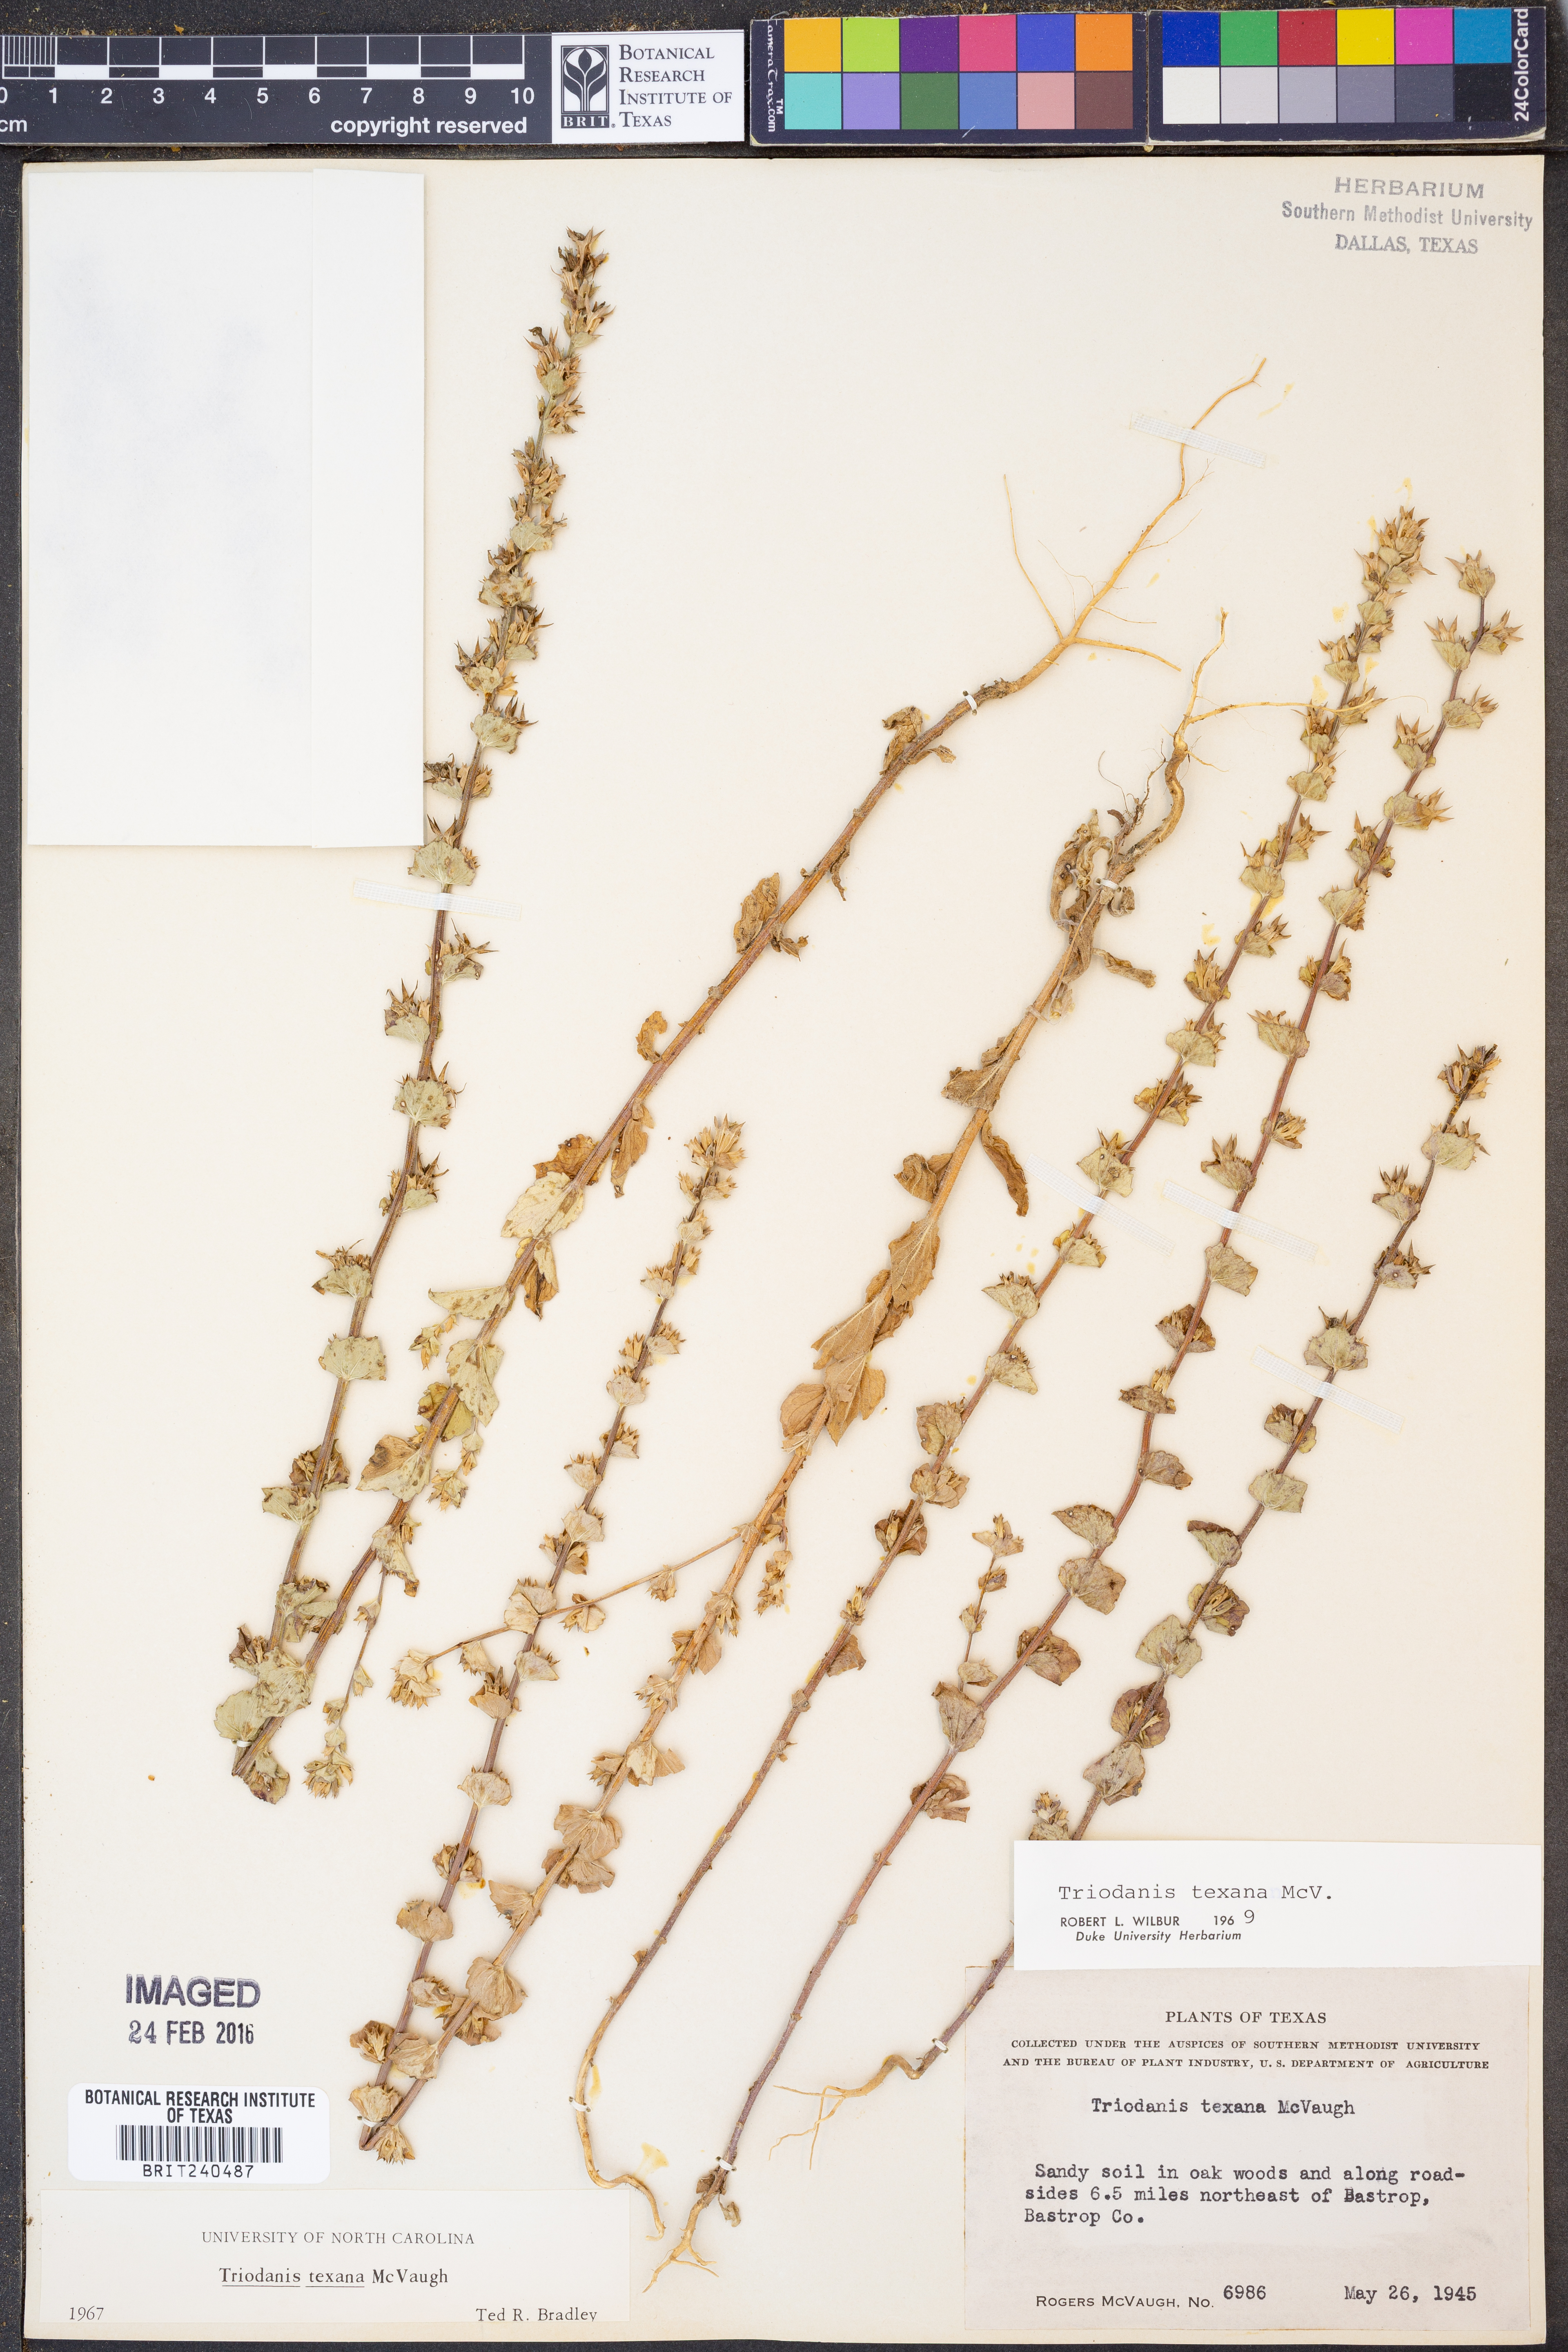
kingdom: Plantae
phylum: Tracheophyta
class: Magnoliopsida
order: Asterales
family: Campanulaceae
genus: Triodanis
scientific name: Triodanis texana
